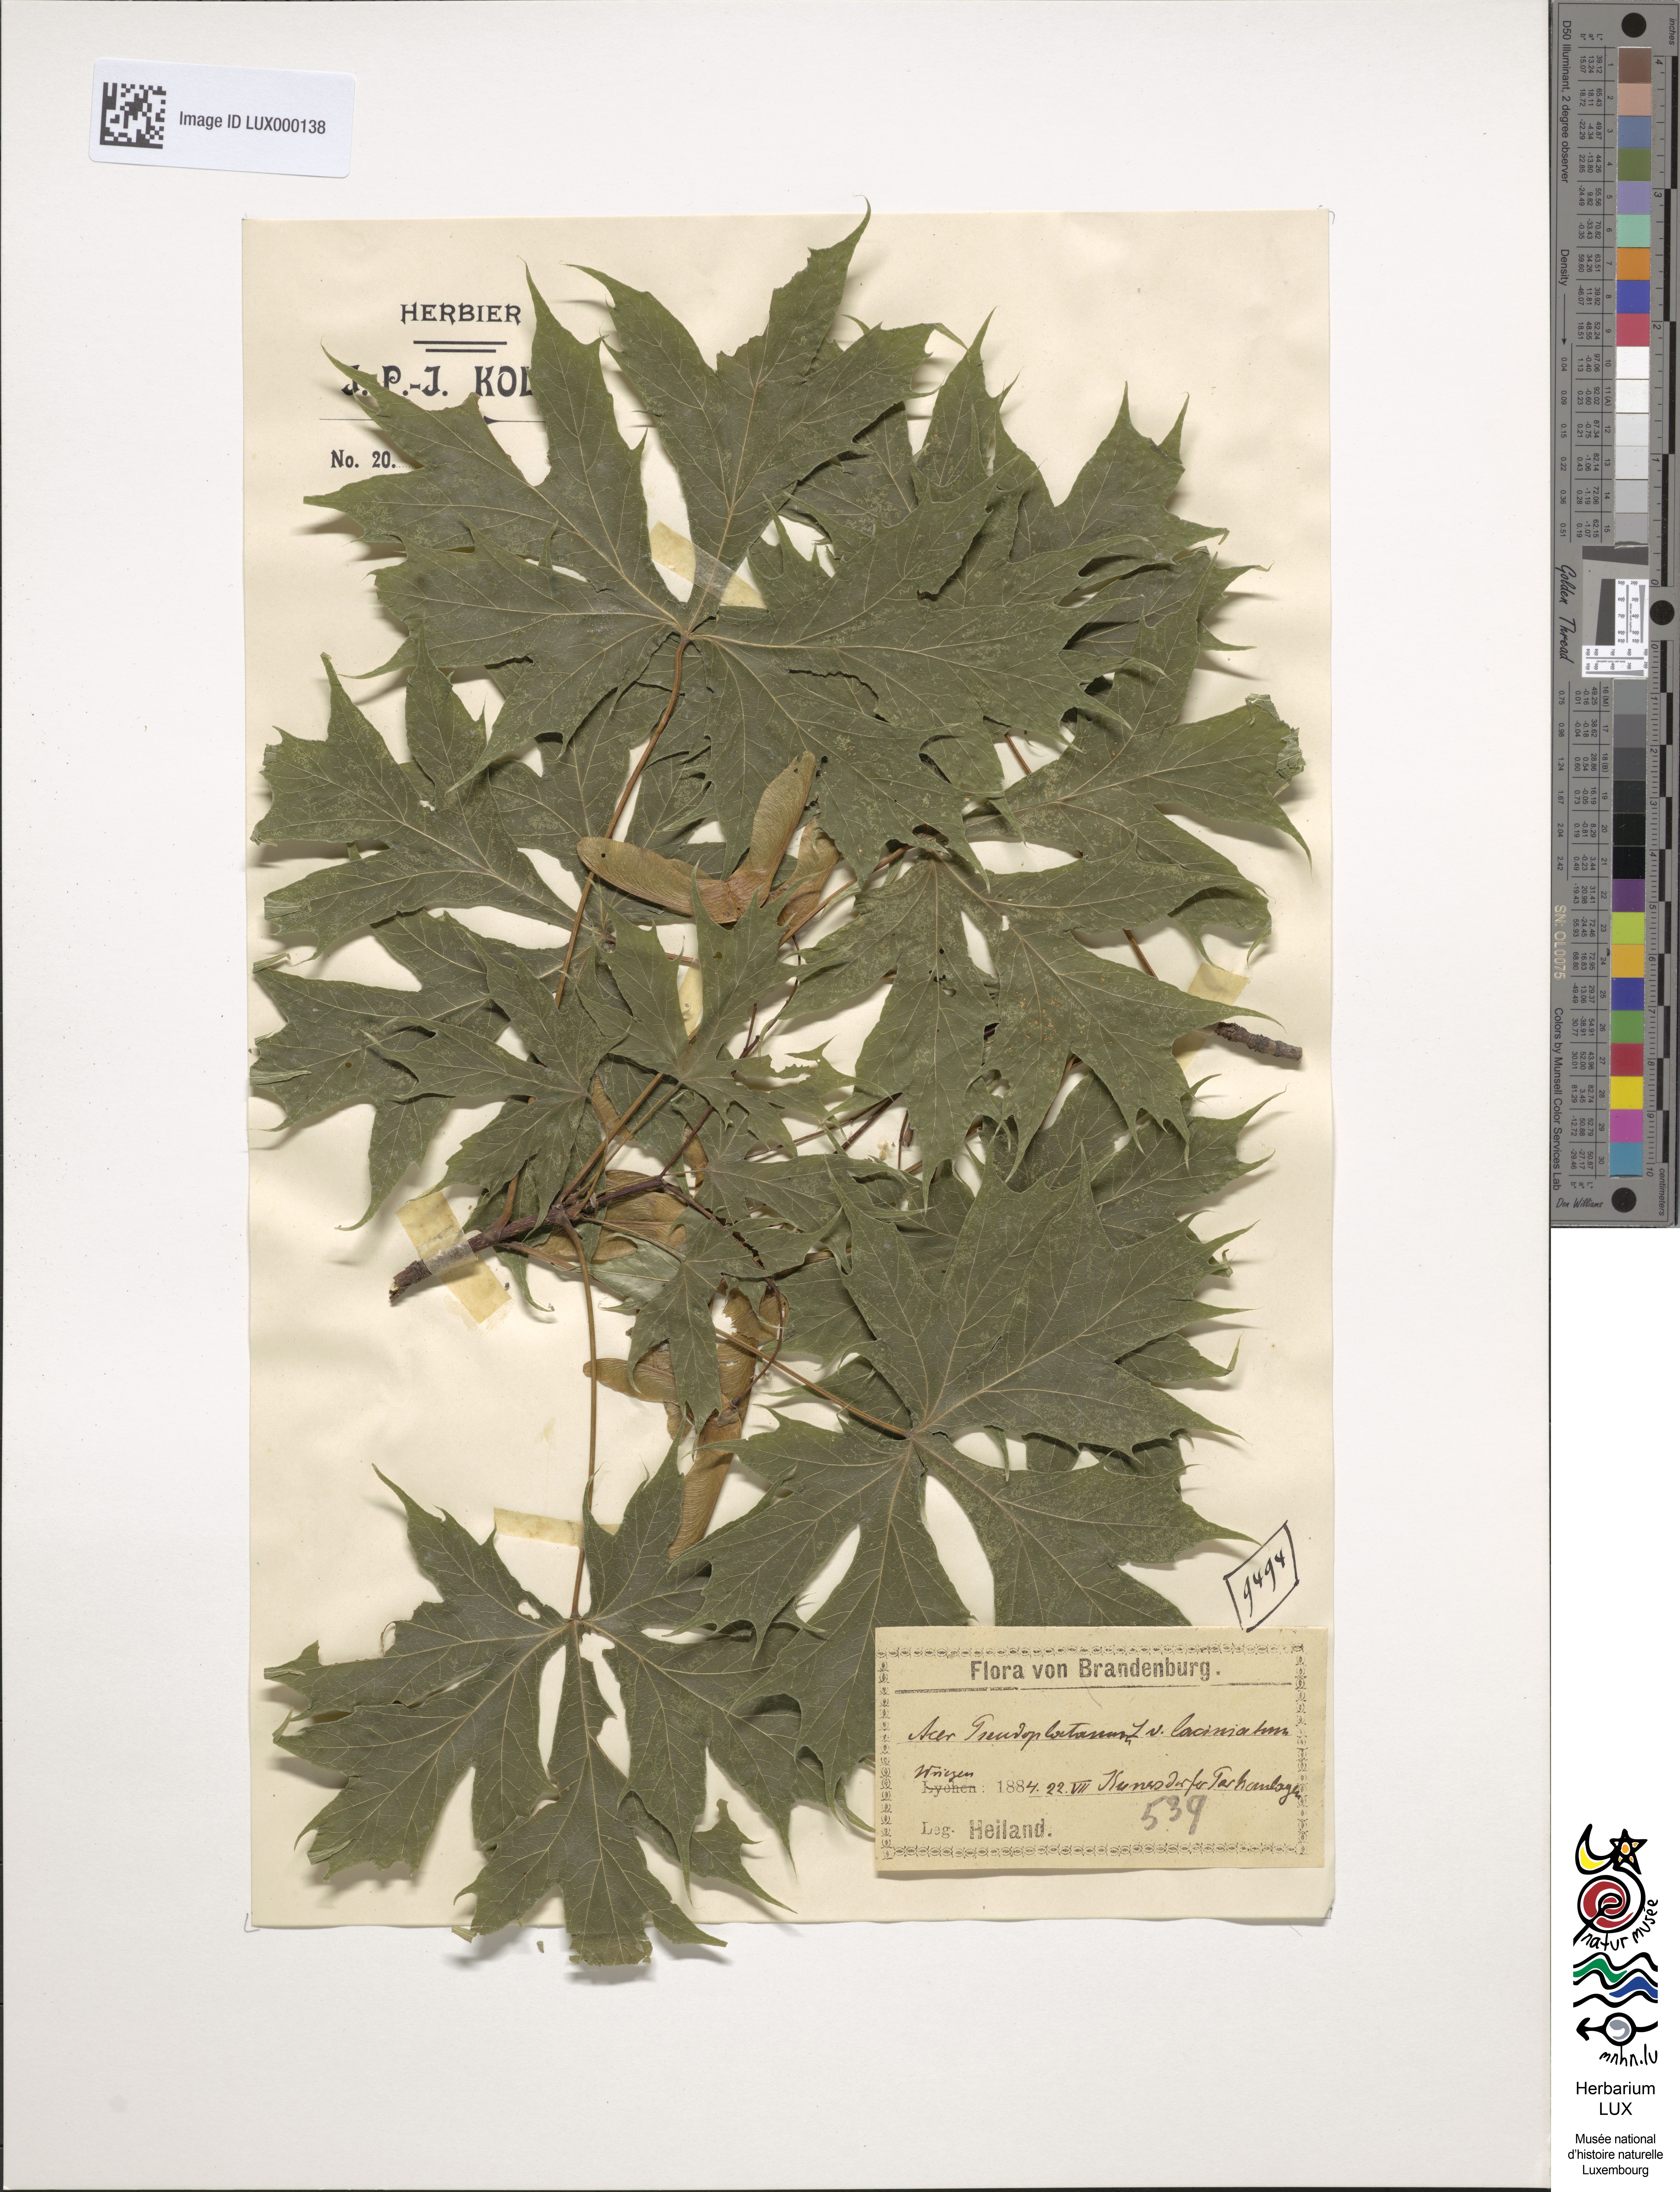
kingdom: Plantae
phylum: Tracheophyta
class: Magnoliopsida
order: Sapindales
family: Sapindaceae
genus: Acer
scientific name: Acer pseudoplatanus
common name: Sycamore
